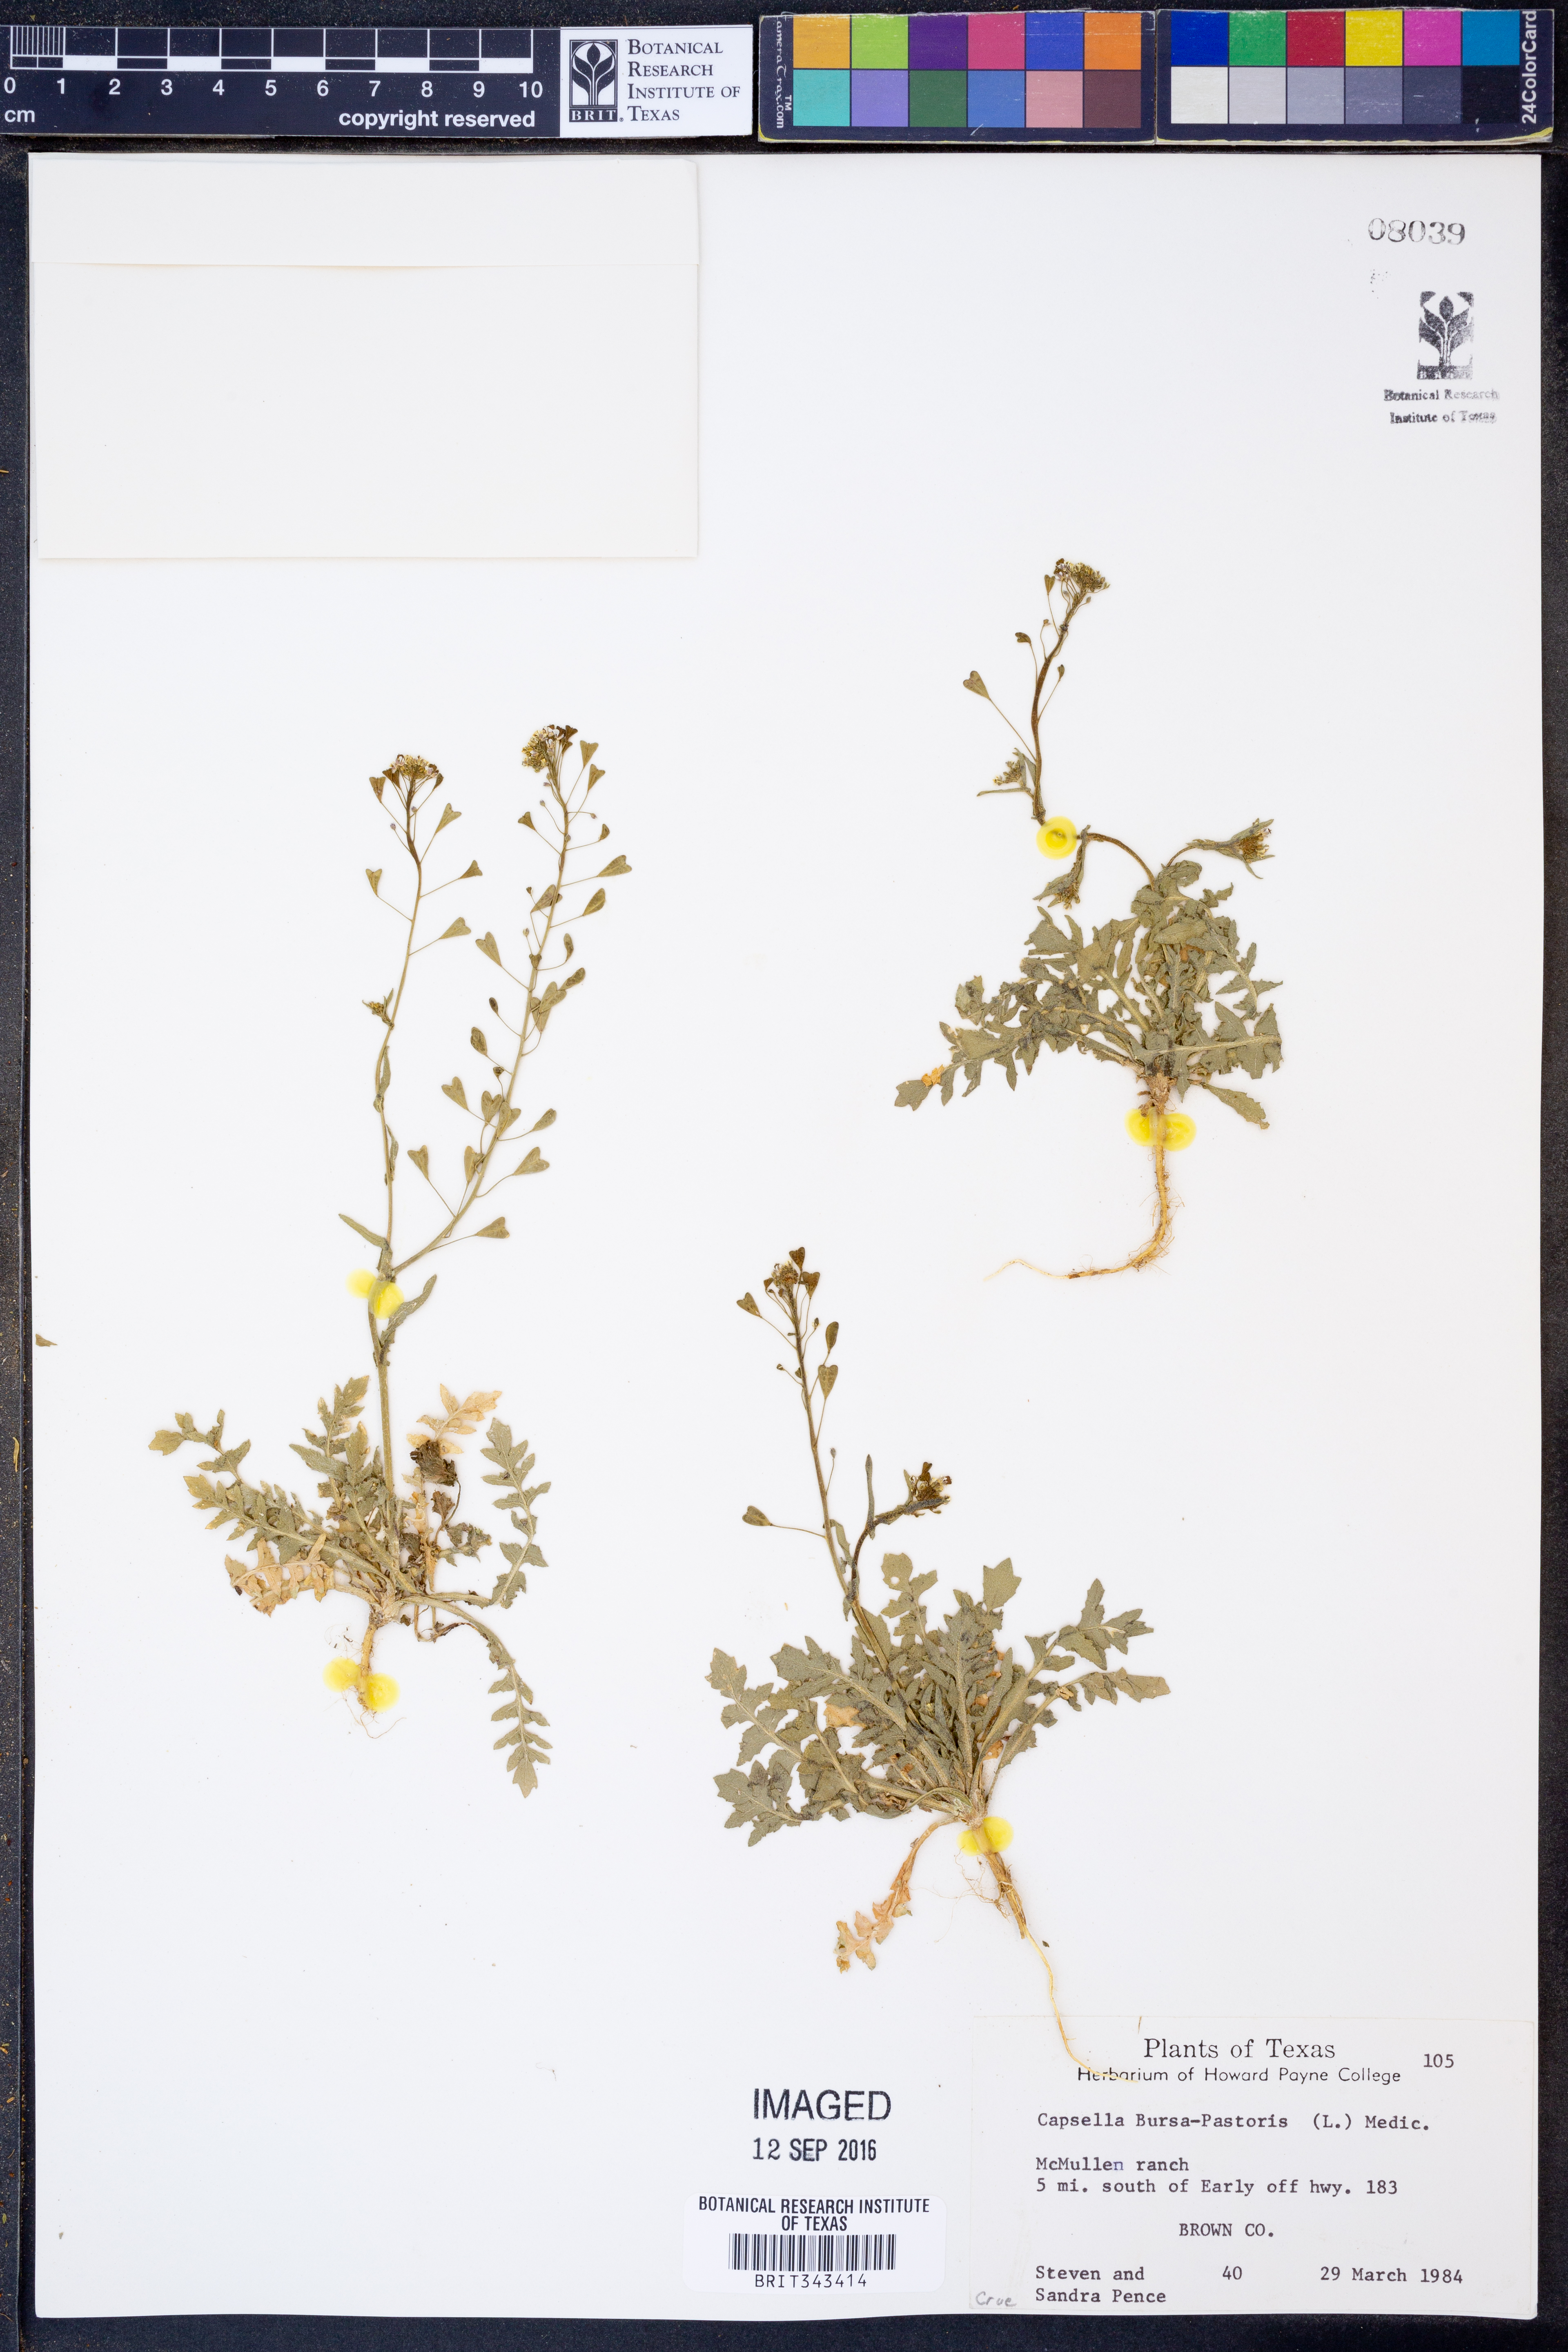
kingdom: Plantae
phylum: Tracheophyta
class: Magnoliopsida
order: Brassicales
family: Brassicaceae
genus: Capsella
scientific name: Capsella bursa-pastoris
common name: Shepherd's purse
